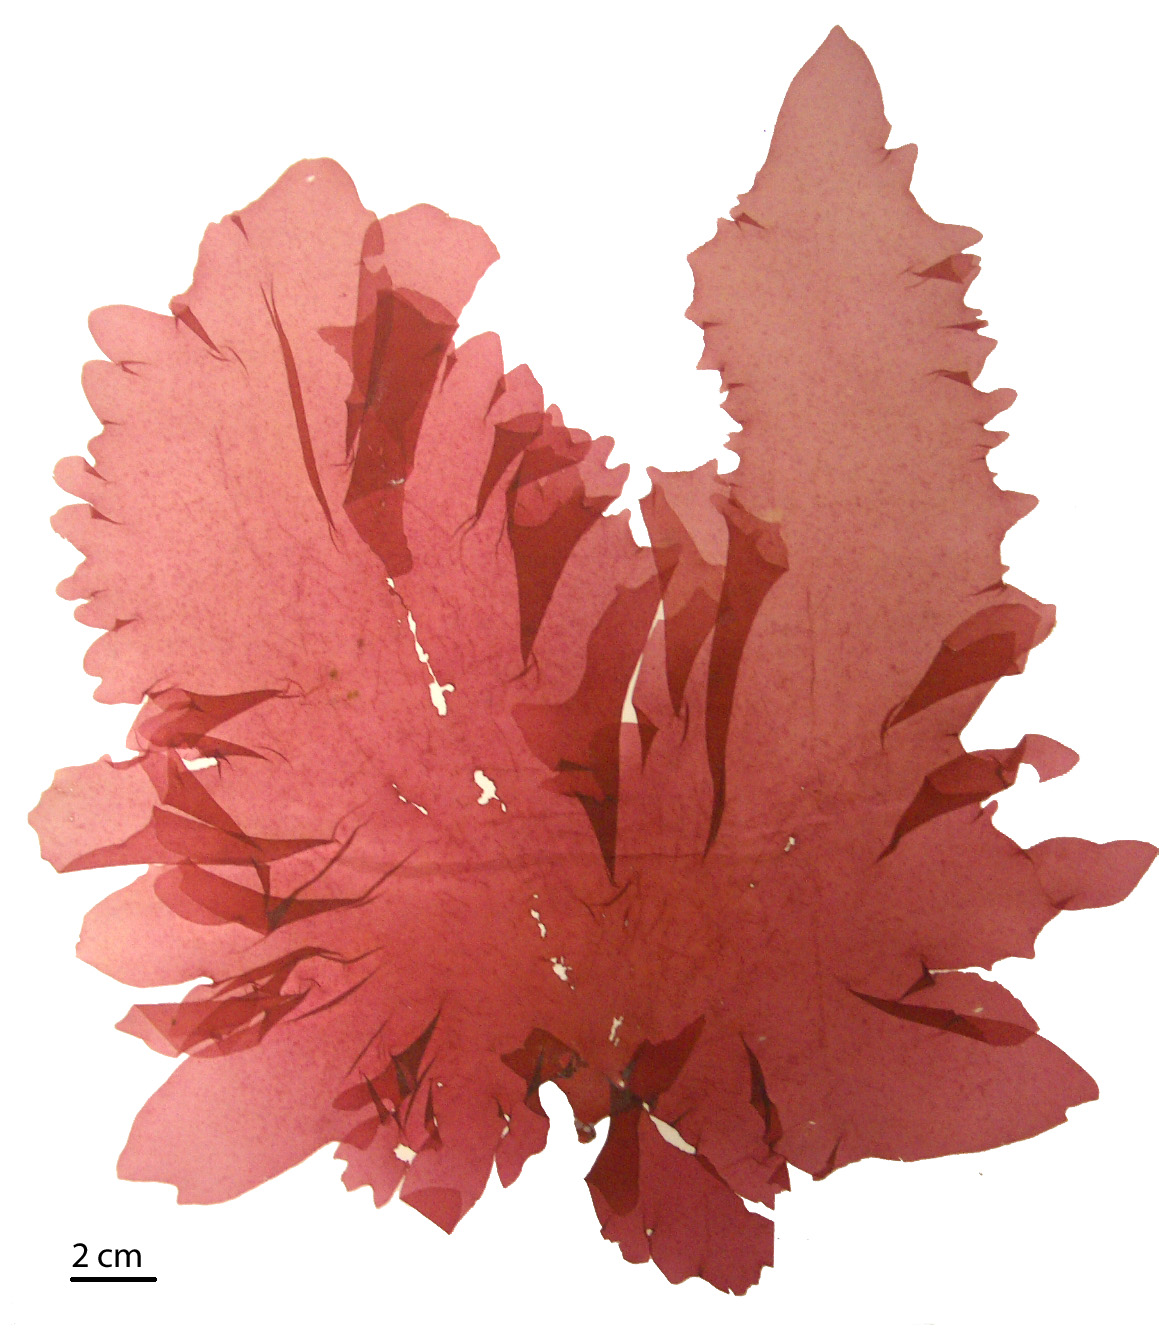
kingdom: Plantae
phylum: Rhodophyta
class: Florideophyceae
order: Gigartinales
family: Kallymeniaceae
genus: Psaromenia
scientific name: Psaromenia berggrenii
